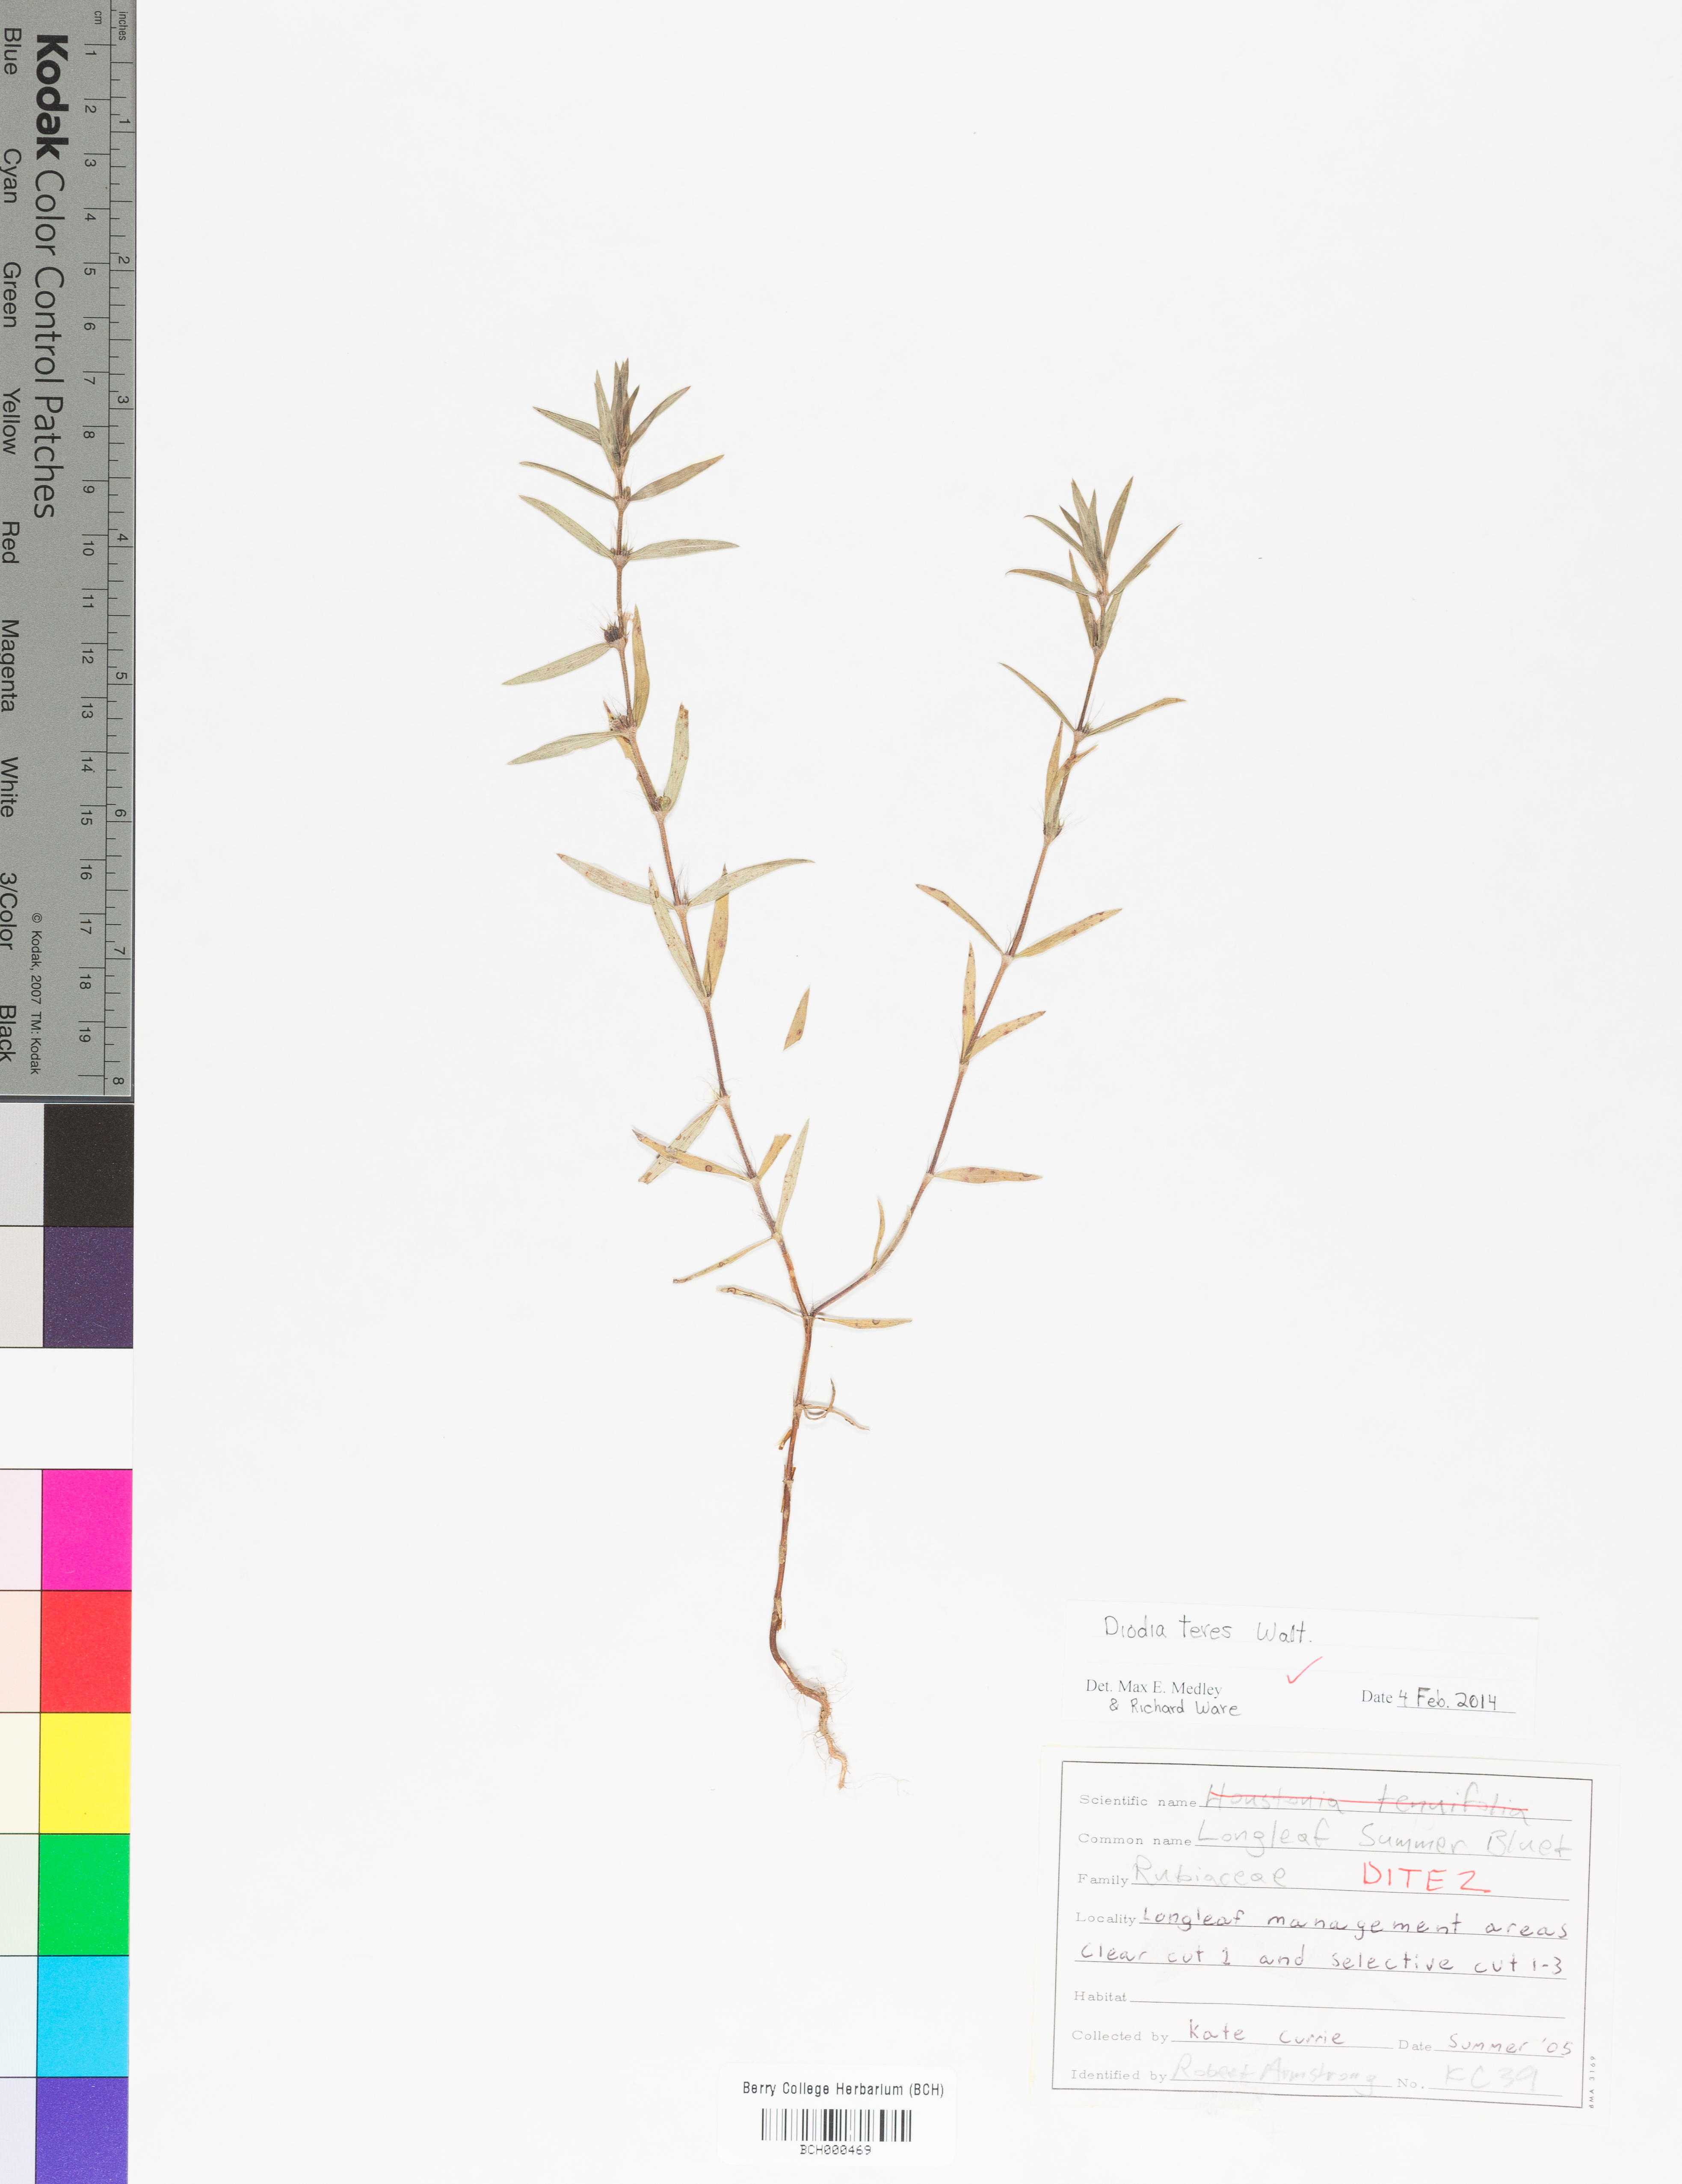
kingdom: Plantae
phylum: Tracheophyta
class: Magnoliopsida
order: Gentianales
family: Rubiaceae
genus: Hexasepalum
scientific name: Hexasepalum teres
